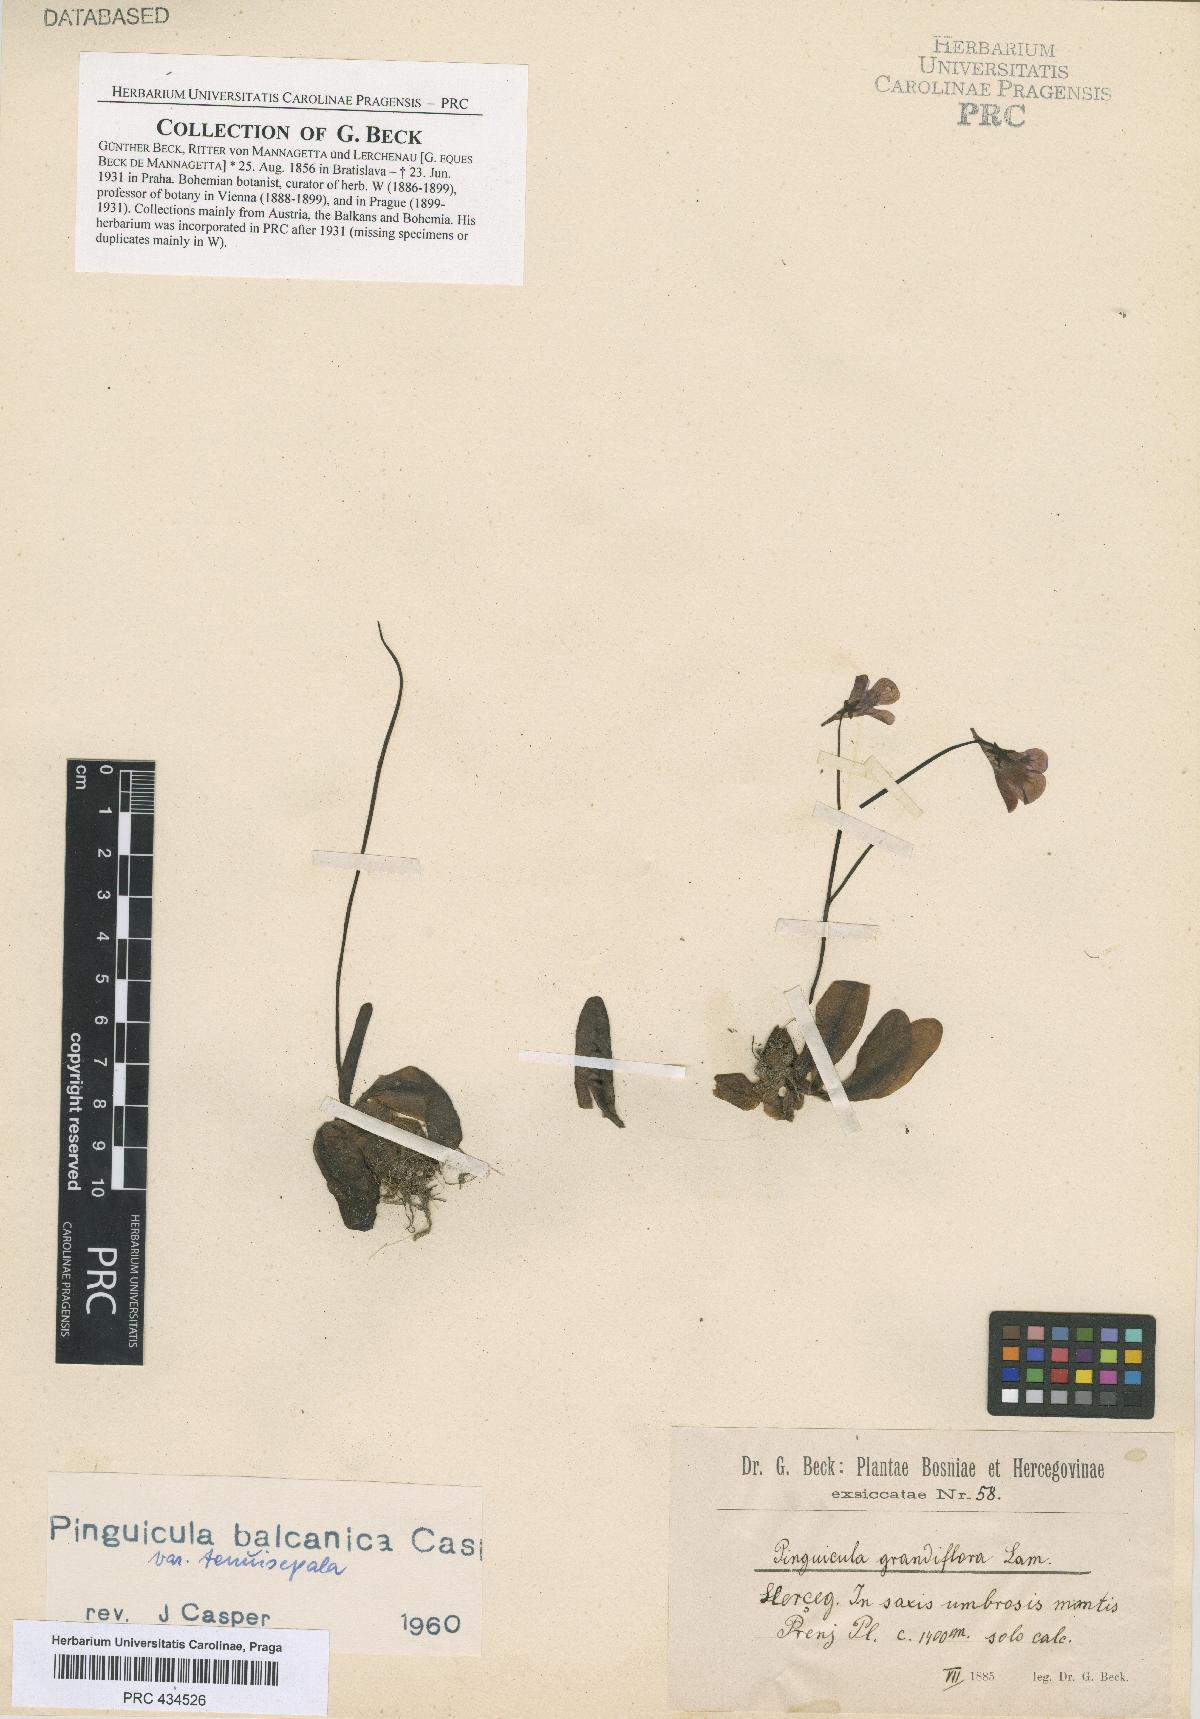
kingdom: Plantae
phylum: Tracheophyta
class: Magnoliopsida
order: Lamiales
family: Lentibulariaceae
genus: Pinguicula
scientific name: Pinguicula balcanica
